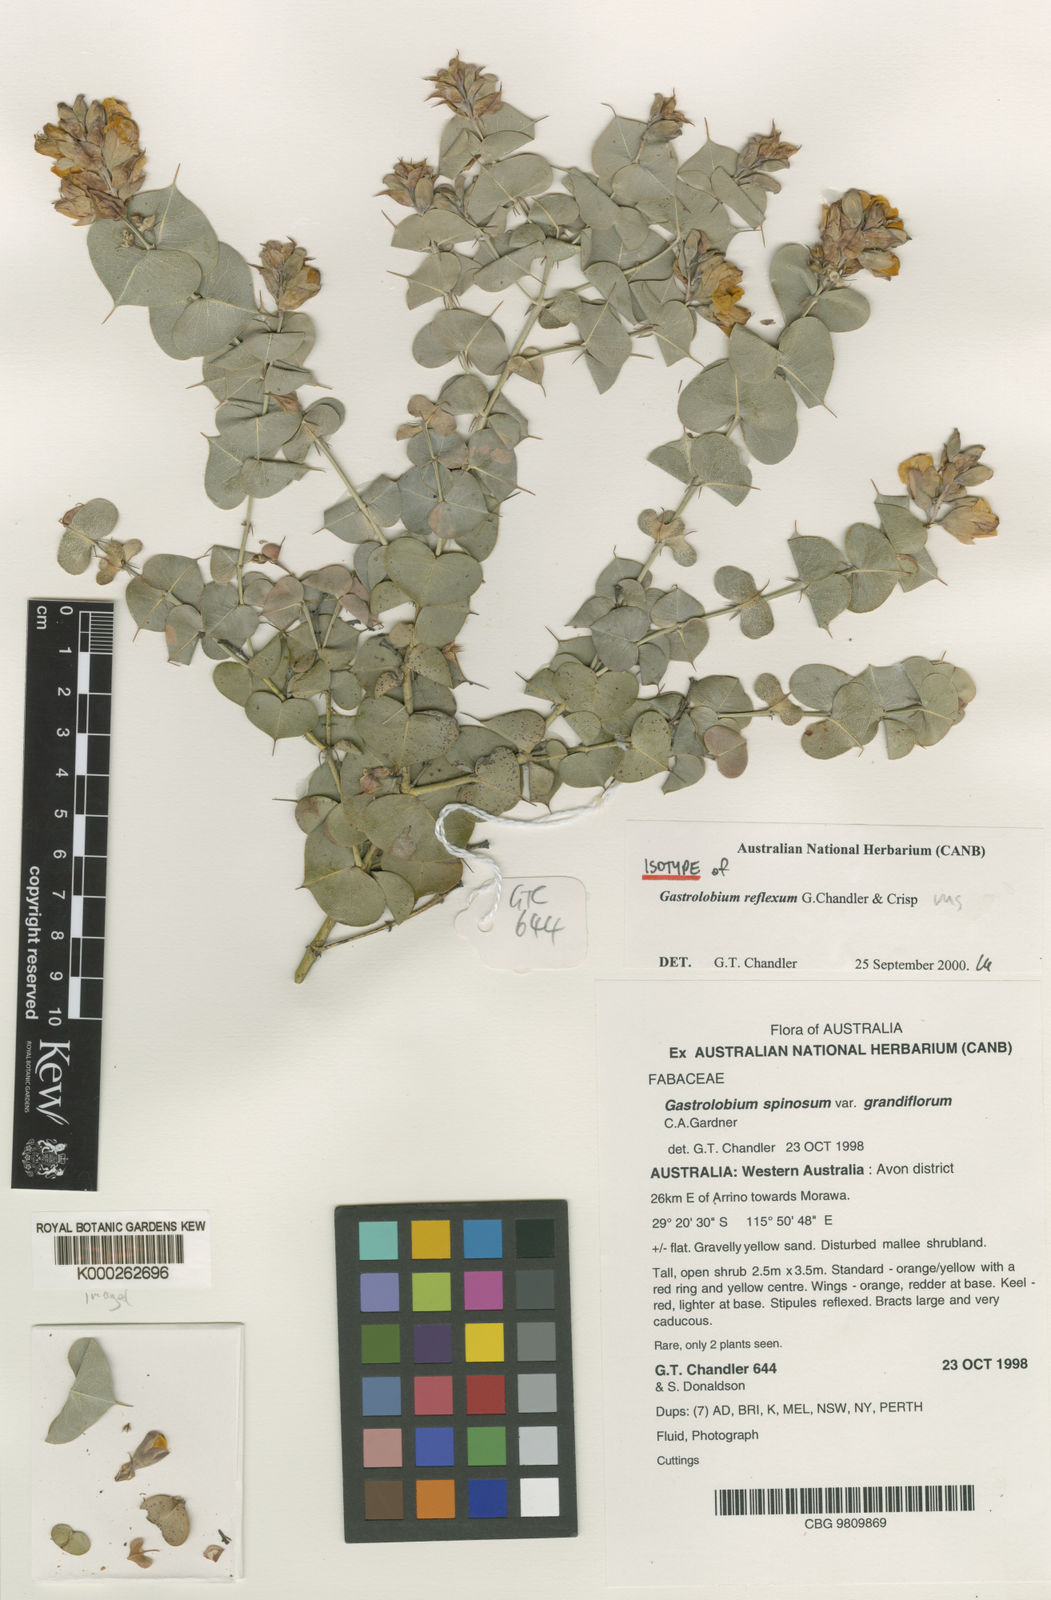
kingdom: Plantae
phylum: Tracheophyta
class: Magnoliopsida
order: Fabales
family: Fabaceae
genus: Gastrolobium
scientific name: Gastrolobium reflexum
